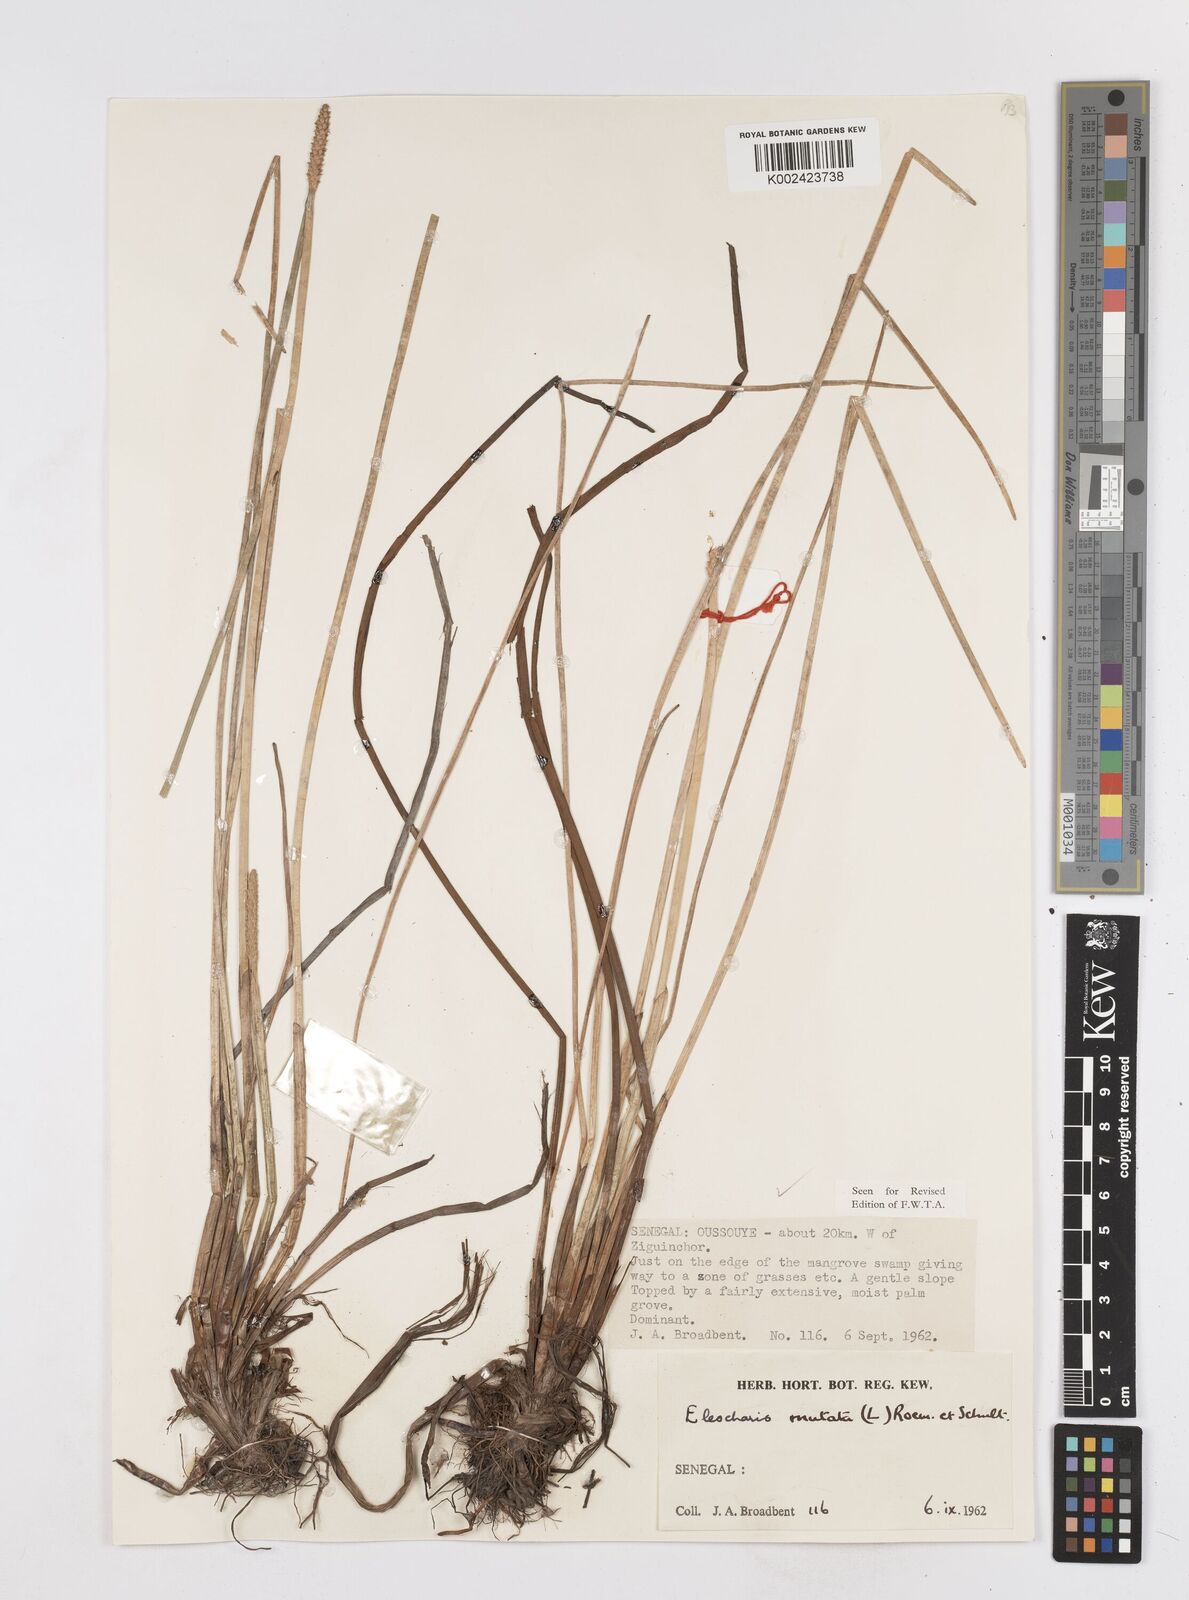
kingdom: Plantae
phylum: Tracheophyta
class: Liliopsida
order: Poales
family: Cyperaceae
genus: Eleocharis
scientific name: Eleocharis mutata
